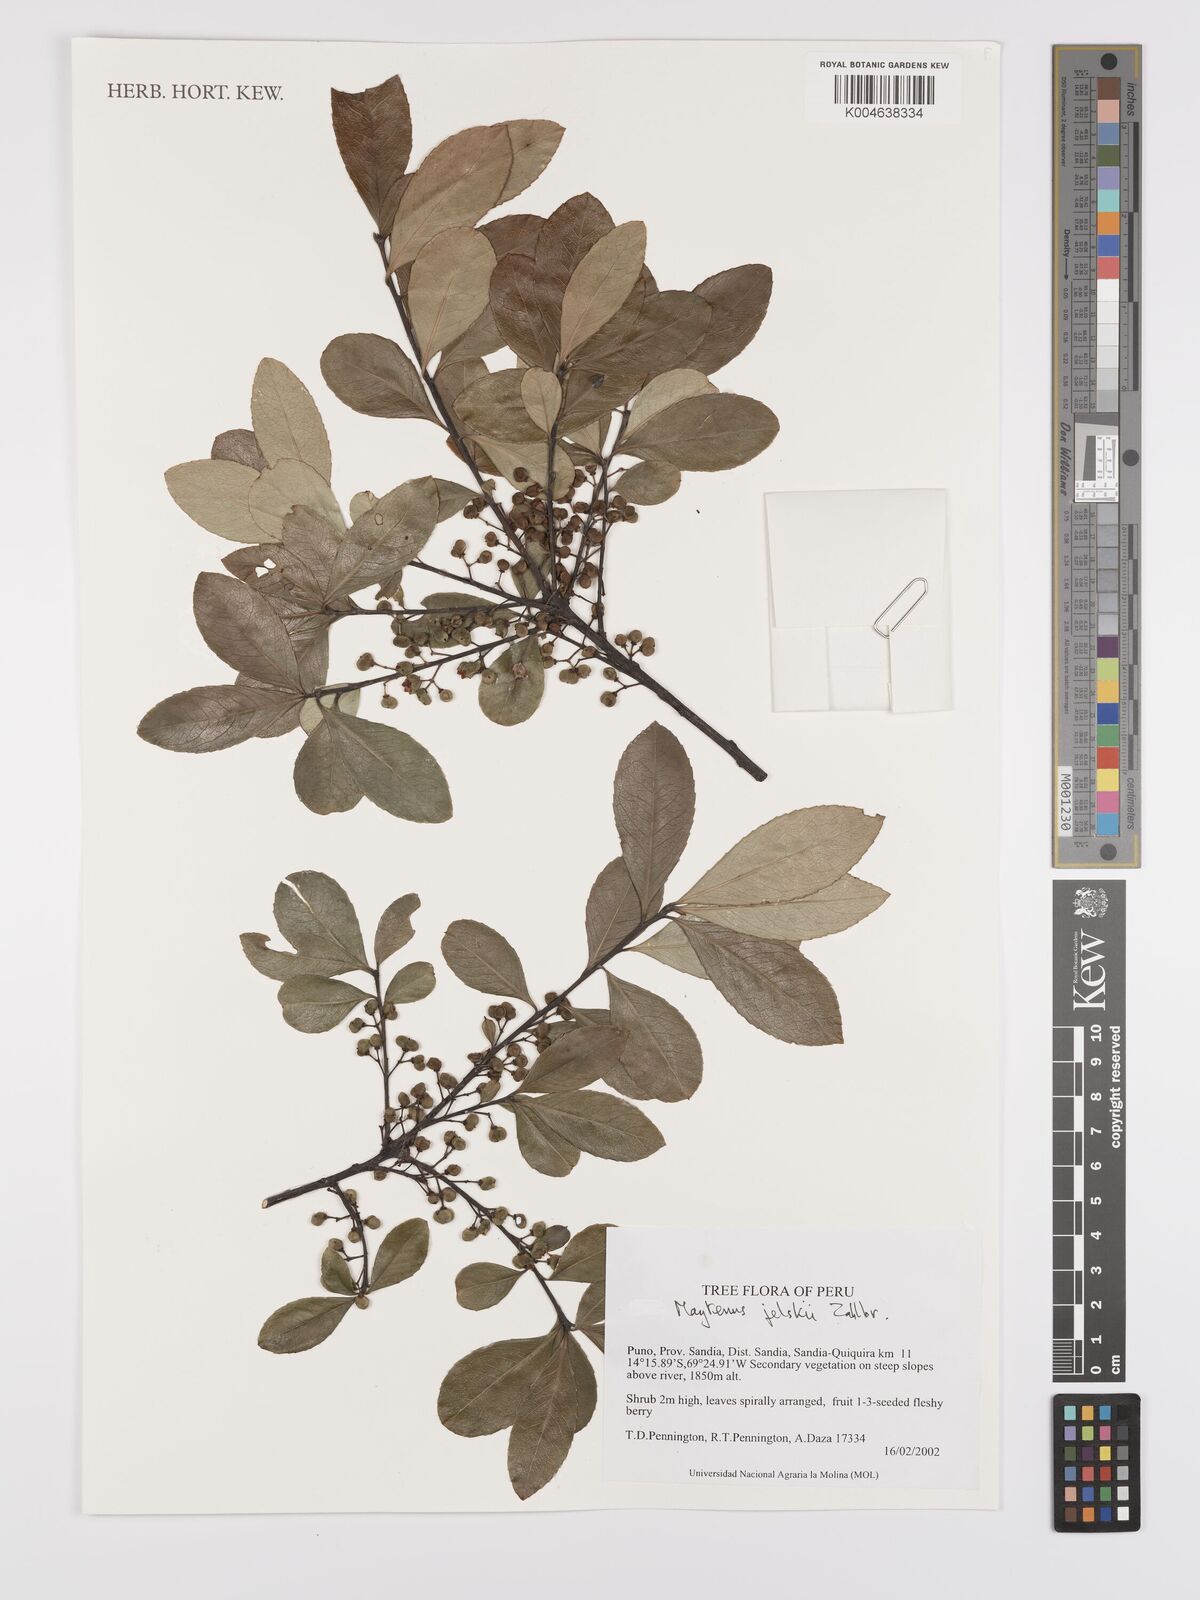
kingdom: Plantae
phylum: Tracheophyta
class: Magnoliopsida
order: Celastrales
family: Celastraceae
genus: Maytenus
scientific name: Maytenus
